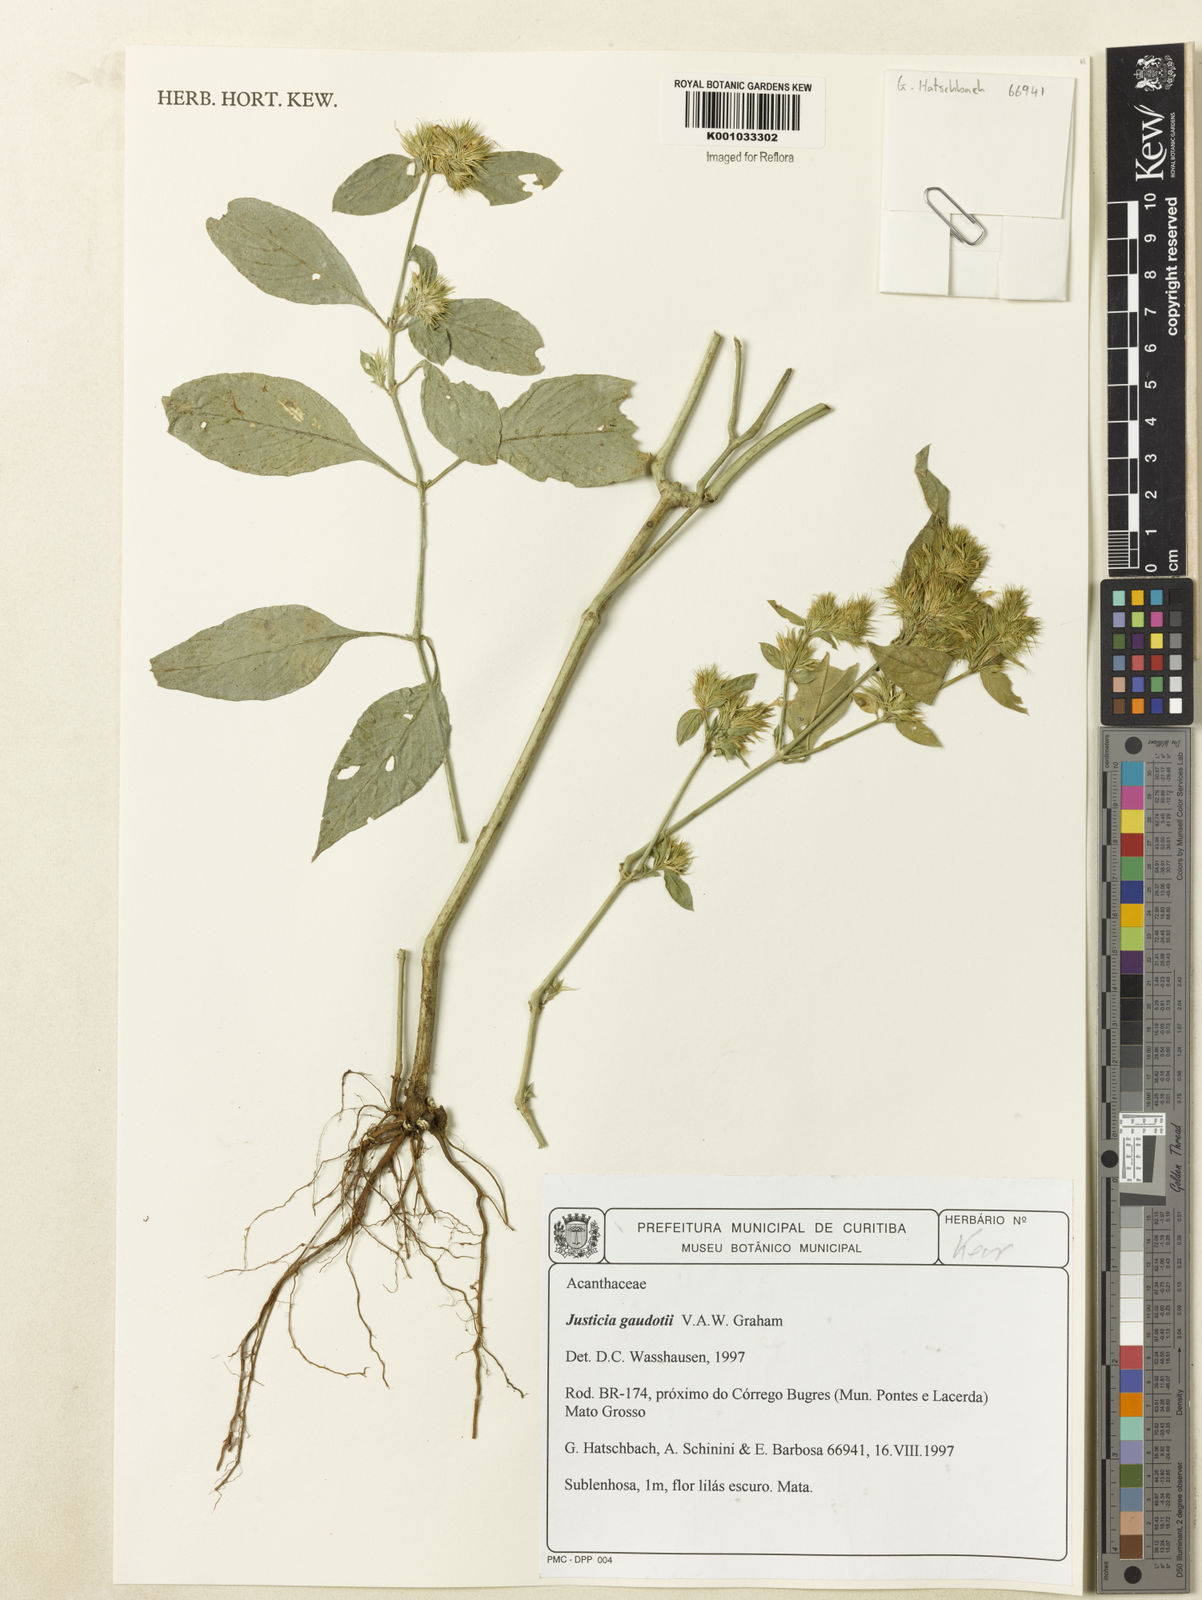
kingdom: Plantae
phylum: Tracheophyta
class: Magnoliopsida
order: Lamiales
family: Acanthaceae
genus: Justicia
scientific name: Justicia goudotii
